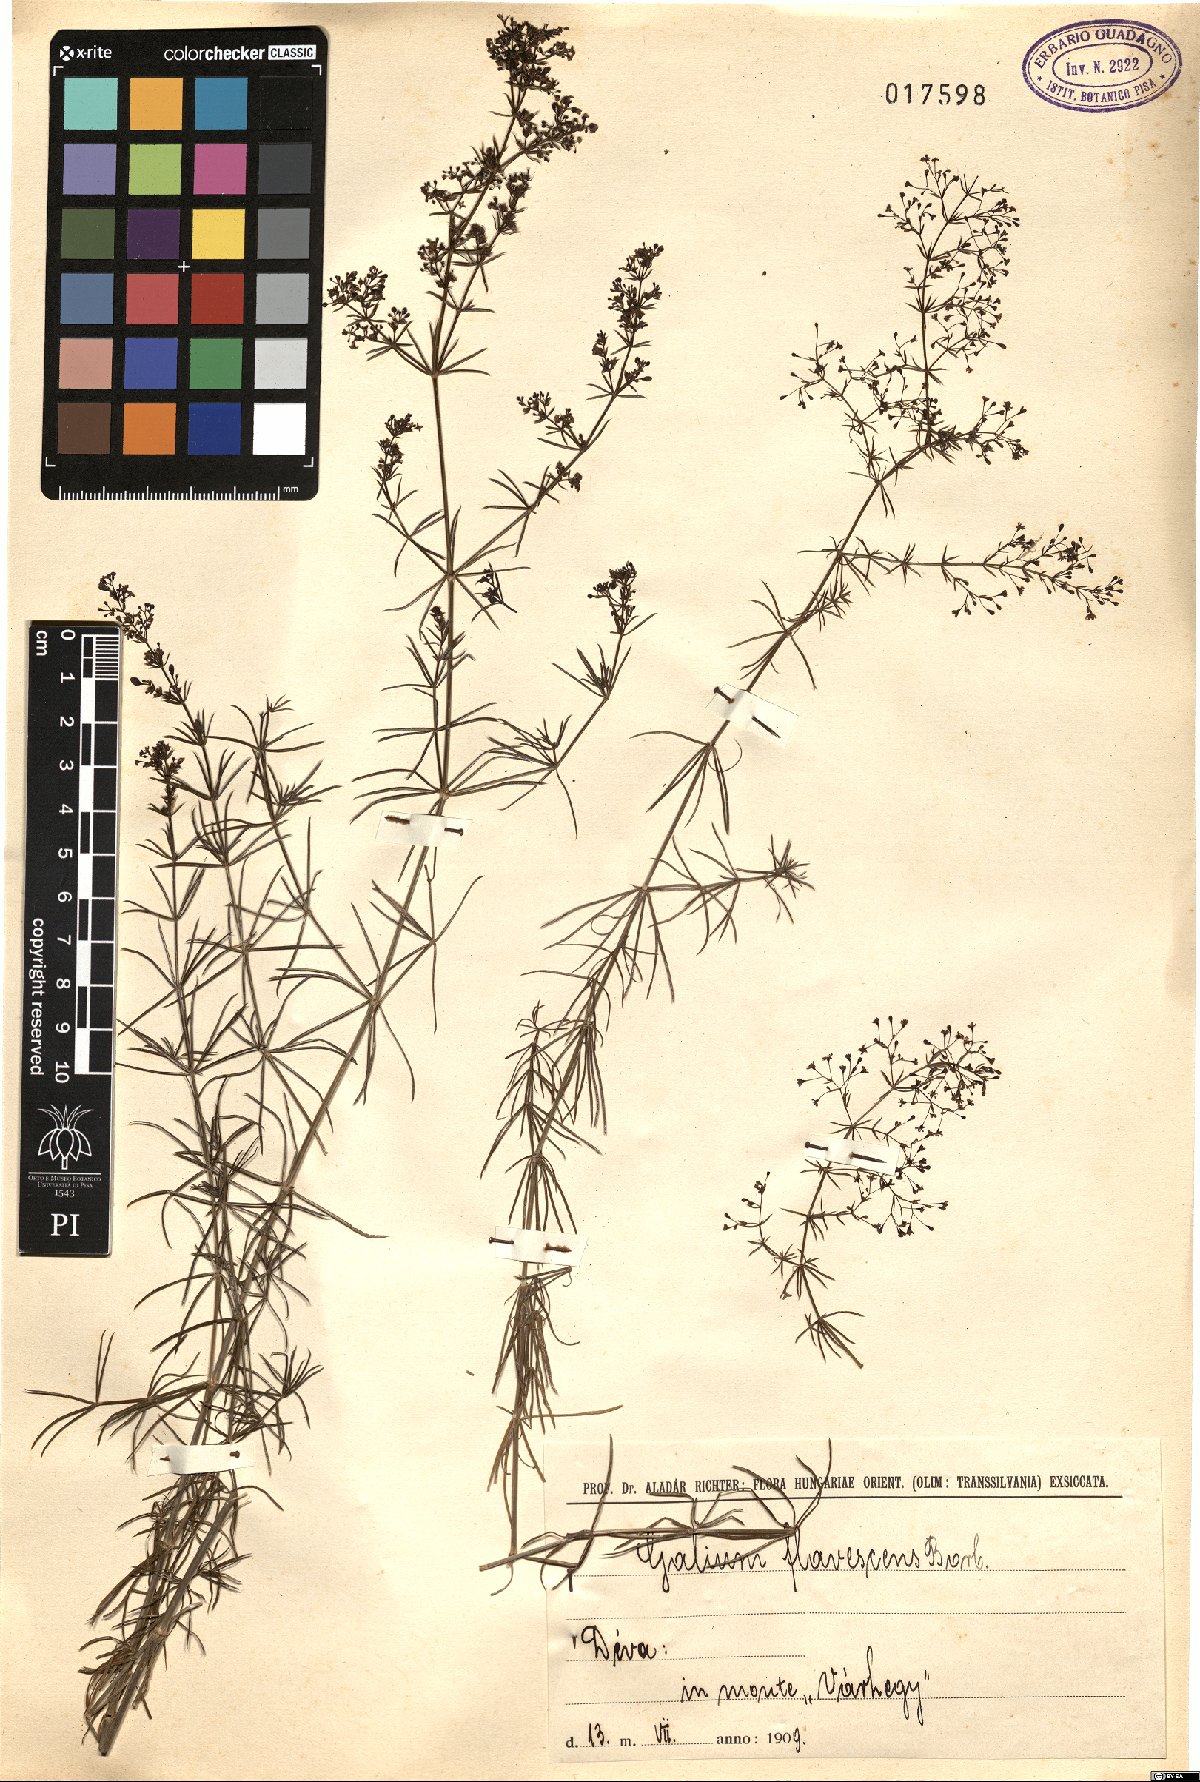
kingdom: Plantae
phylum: Tracheophyta
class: Magnoliopsida
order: Gentianales
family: Rubiaceae
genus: Galium
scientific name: Galium flavescens
